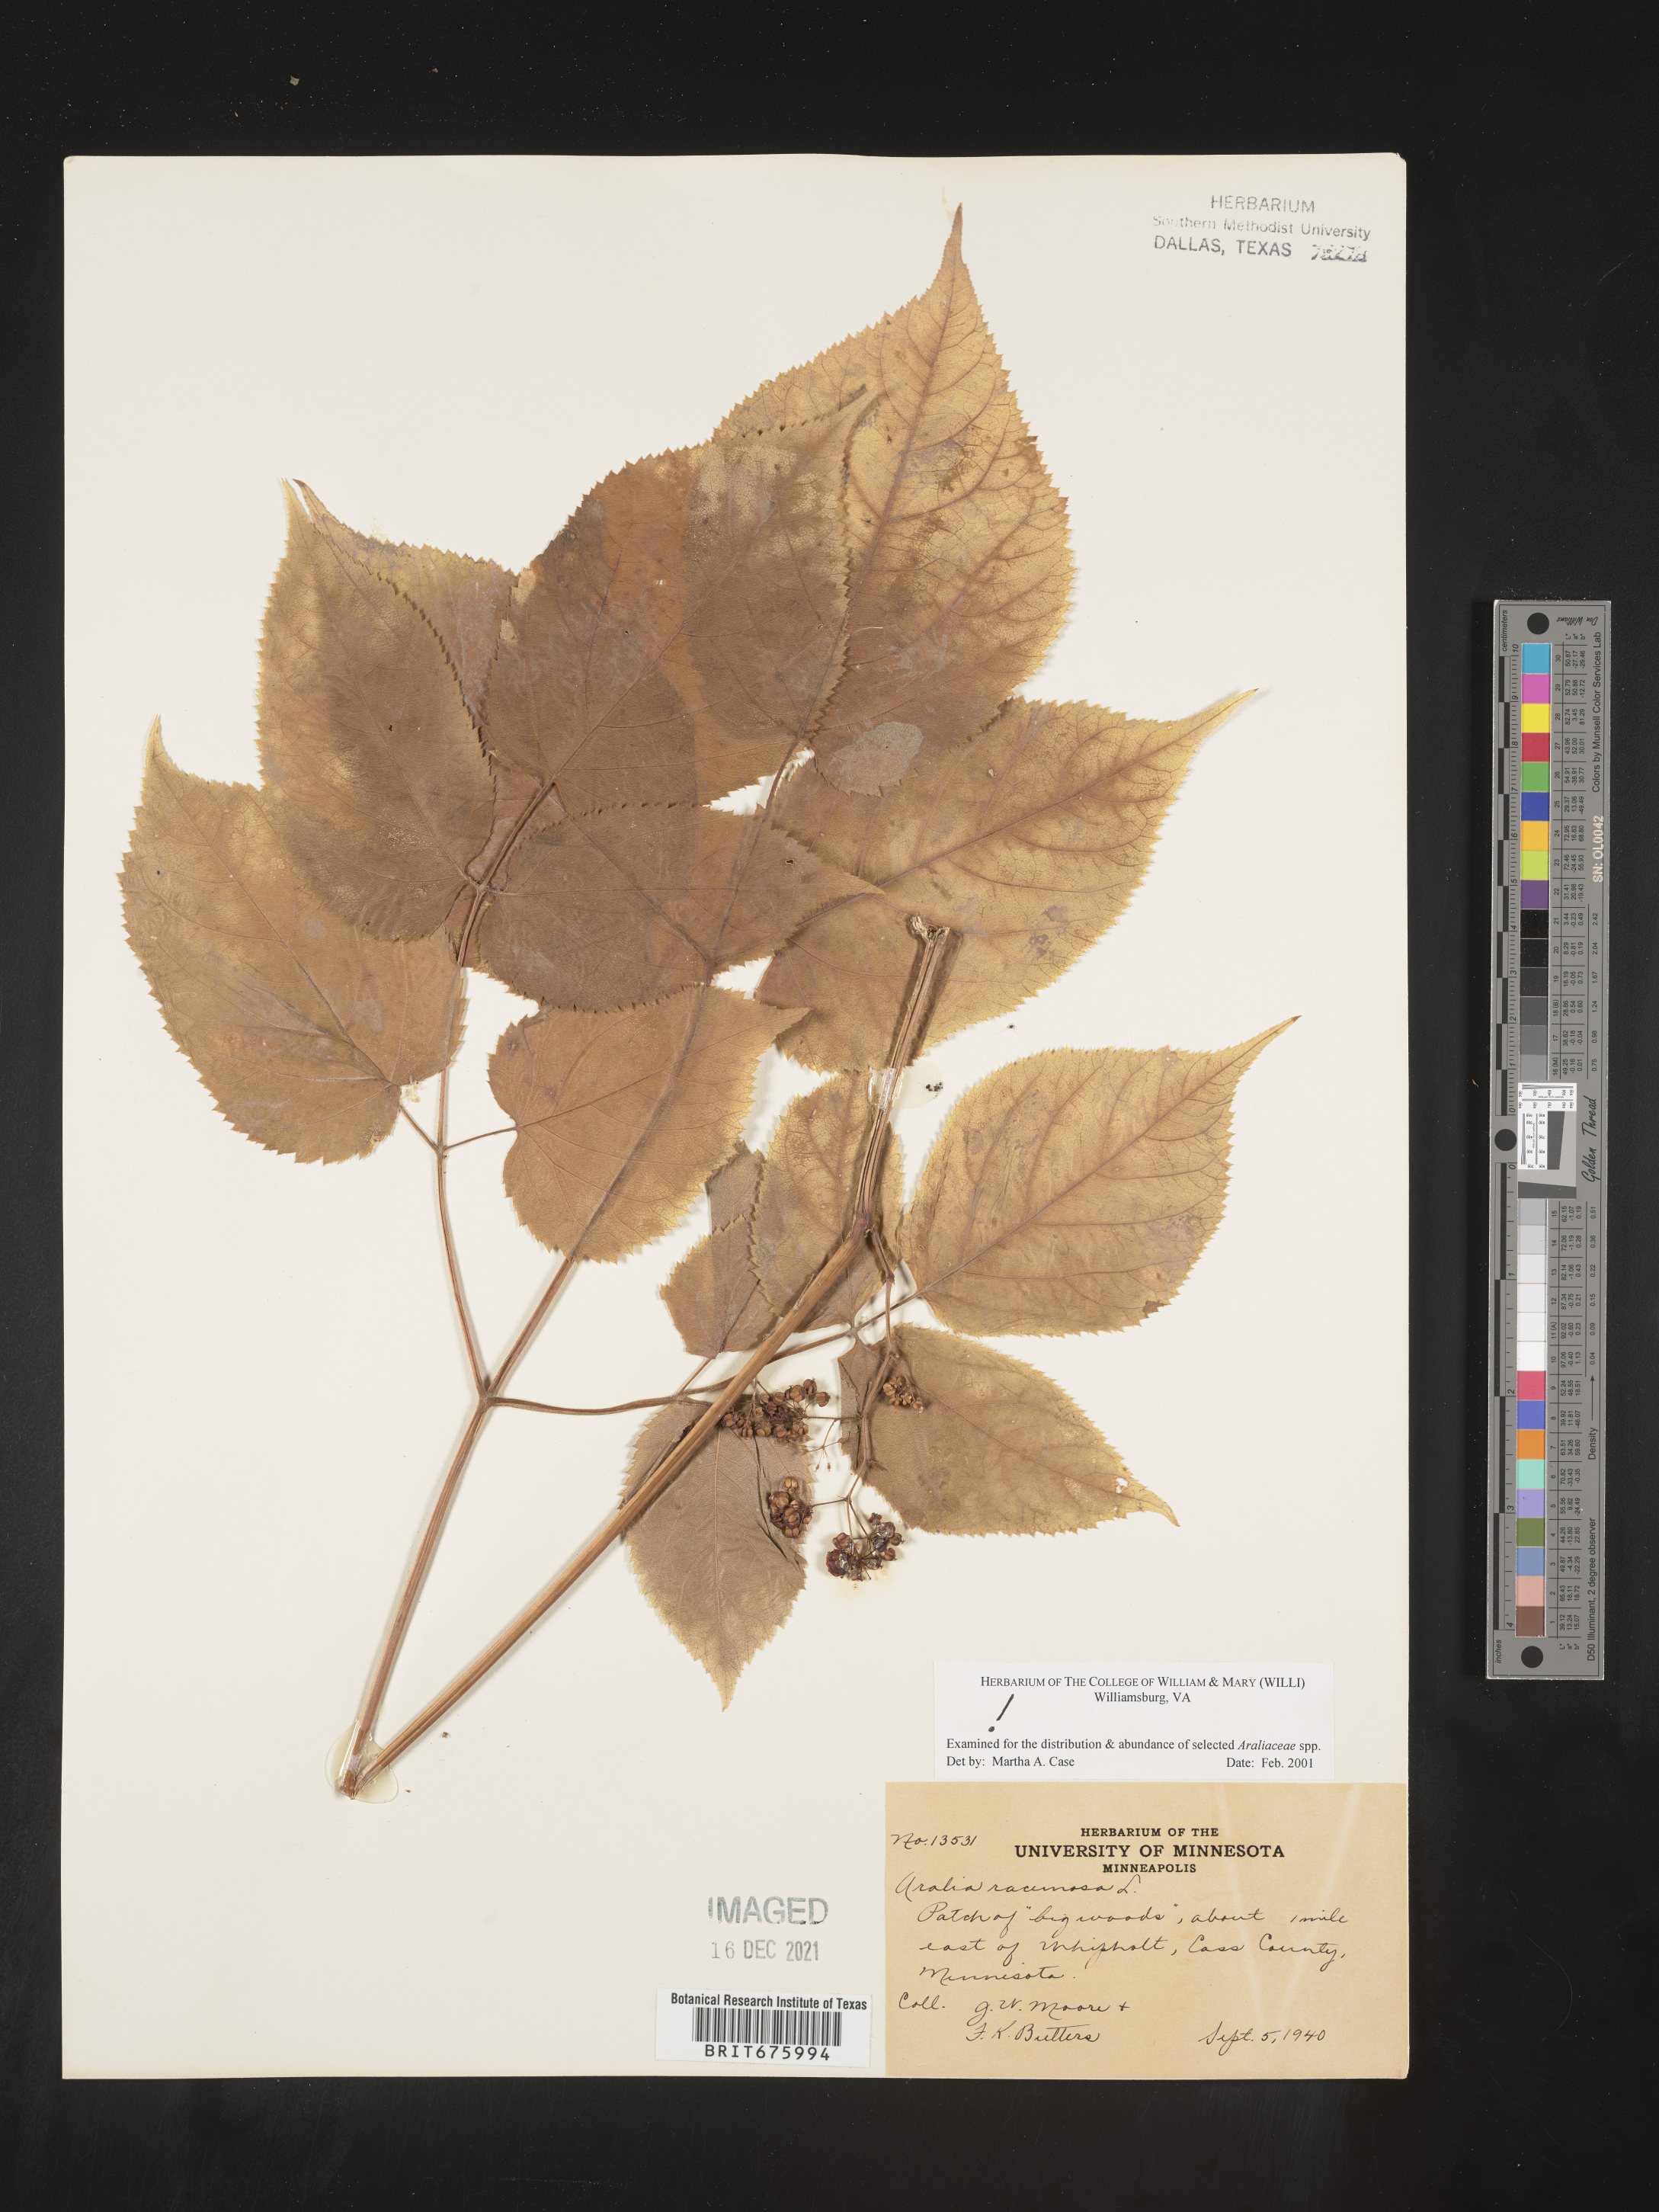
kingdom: Plantae
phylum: Tracheophyta
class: Magnoliopsida
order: Apiales
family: Araliaceae
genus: Aralia
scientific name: Aralia racemosa
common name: American-spikenard
